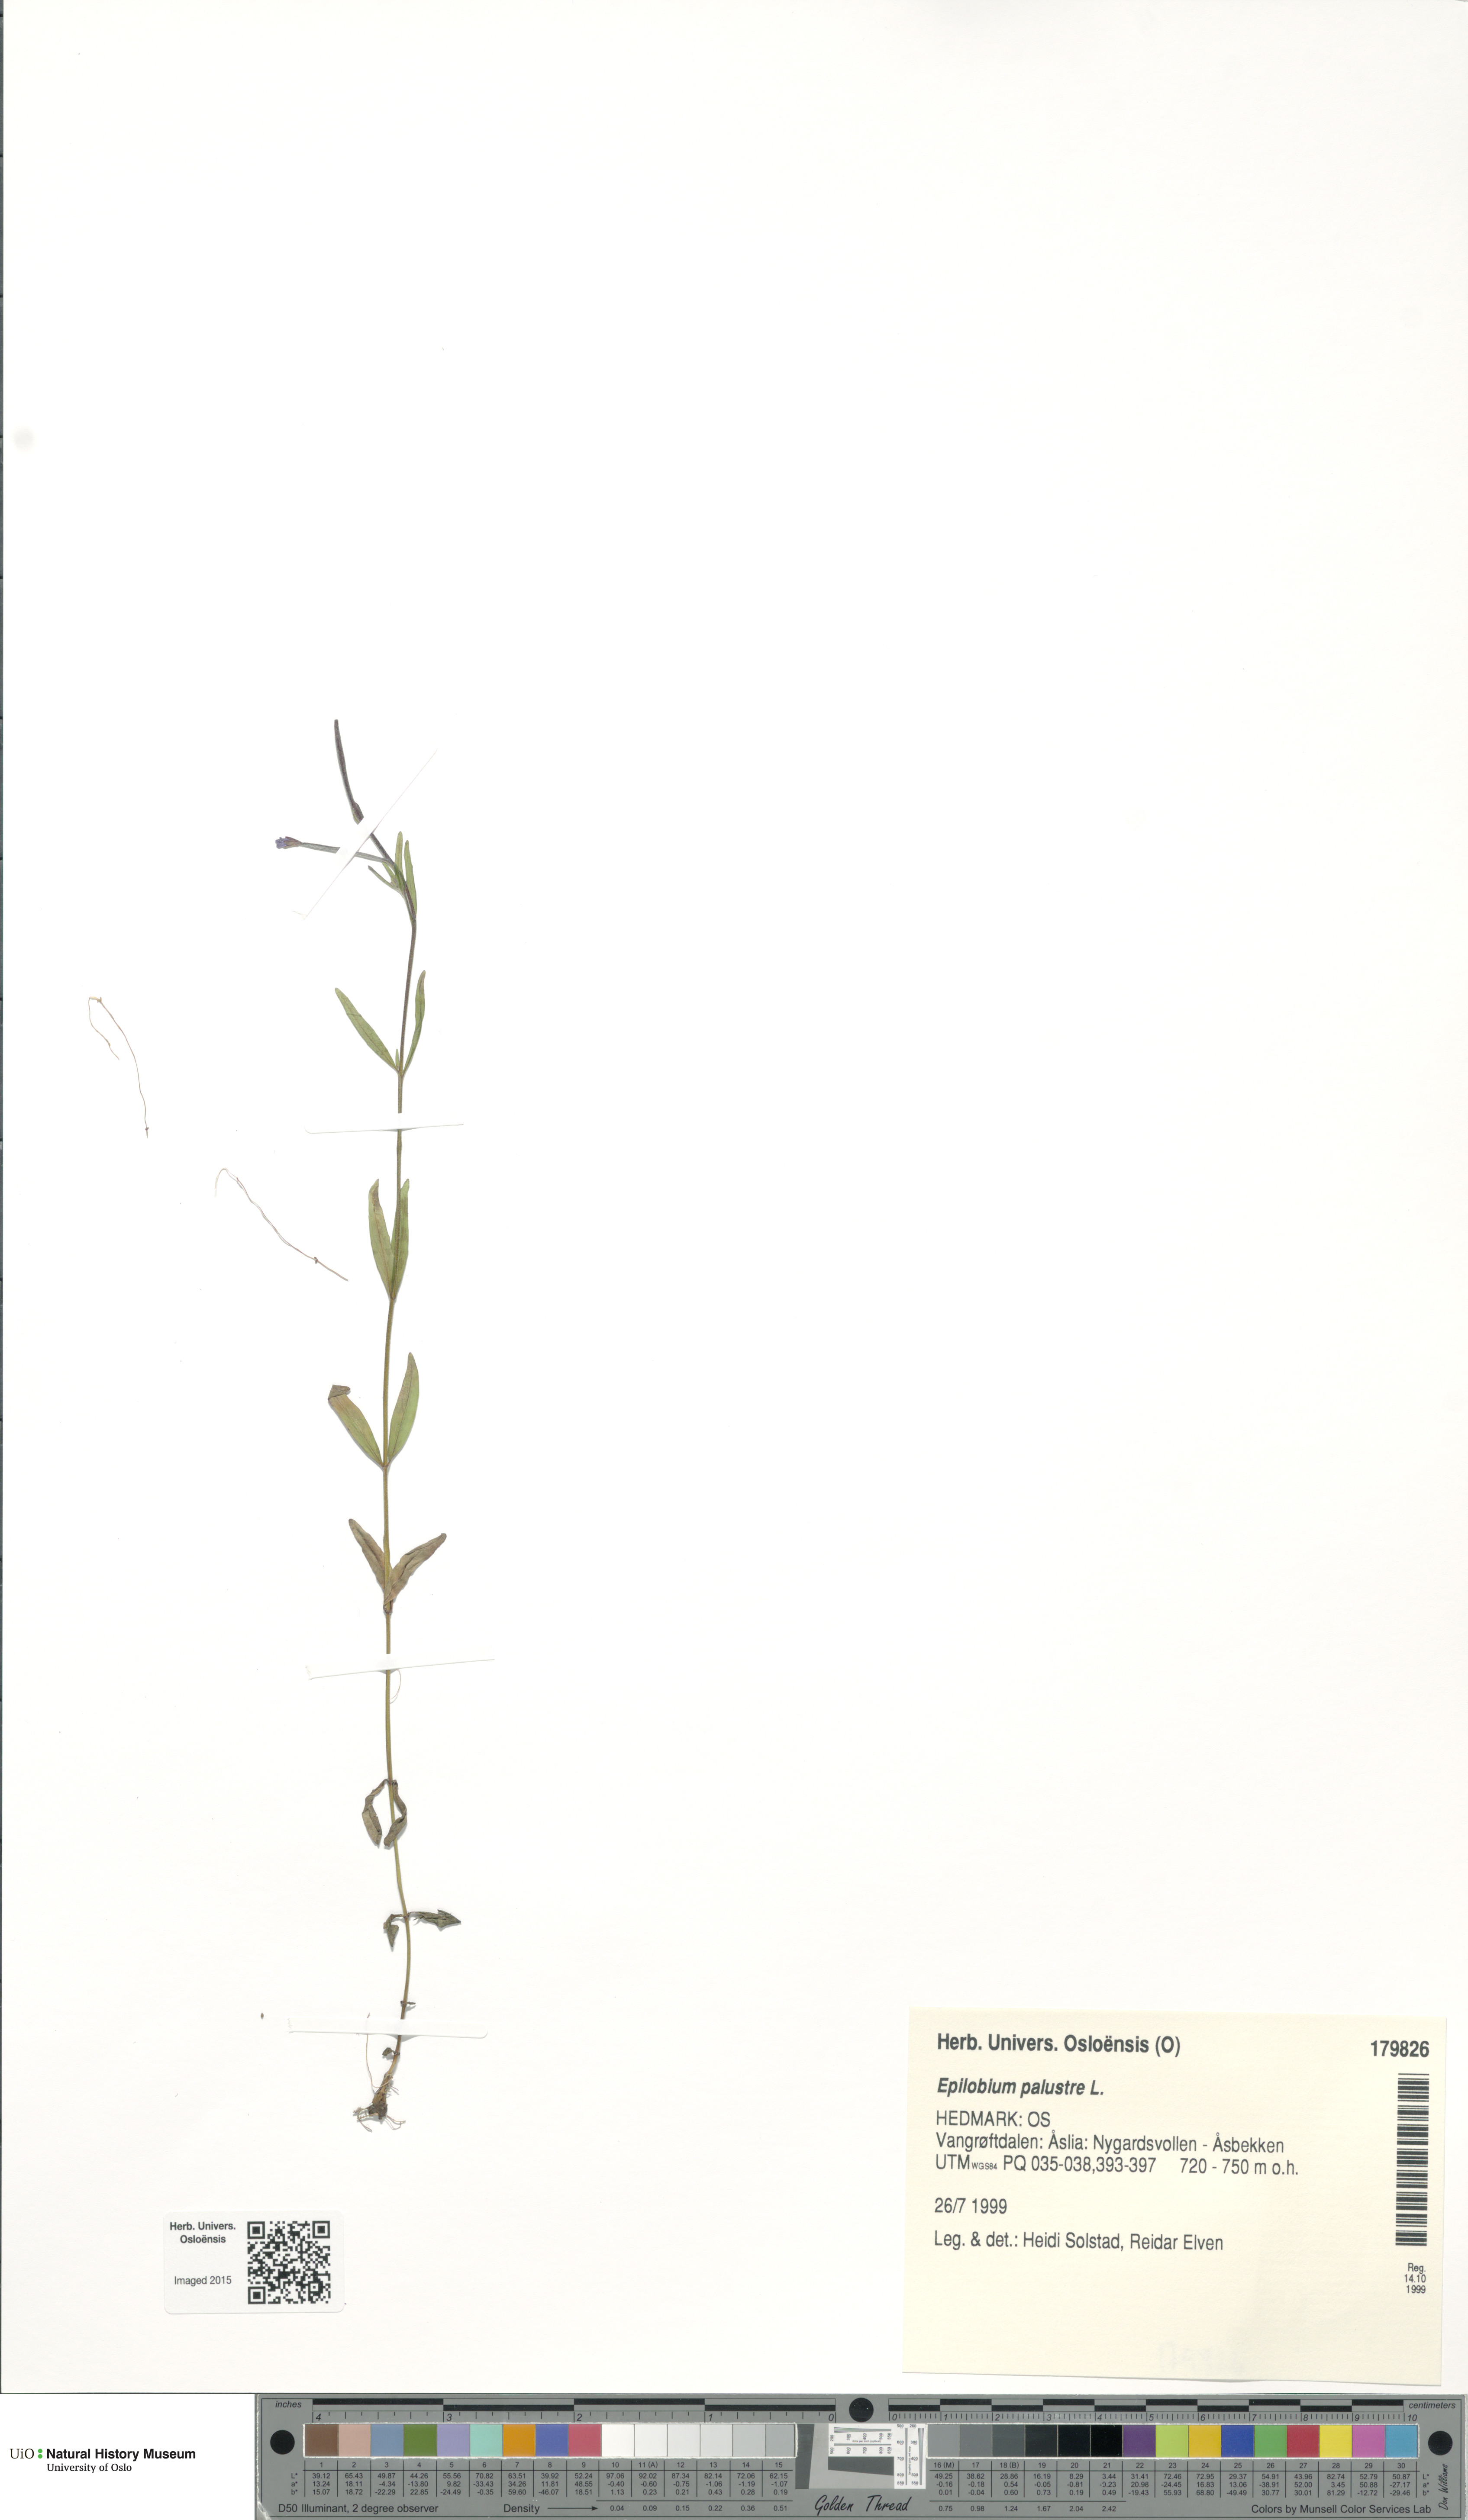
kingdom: Plantae
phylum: Tracheophyta
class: Magnoliopsida
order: Myrtales
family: Onagraceae
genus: Epilobium
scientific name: Epilobium palustre
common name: Marsh willowherb
